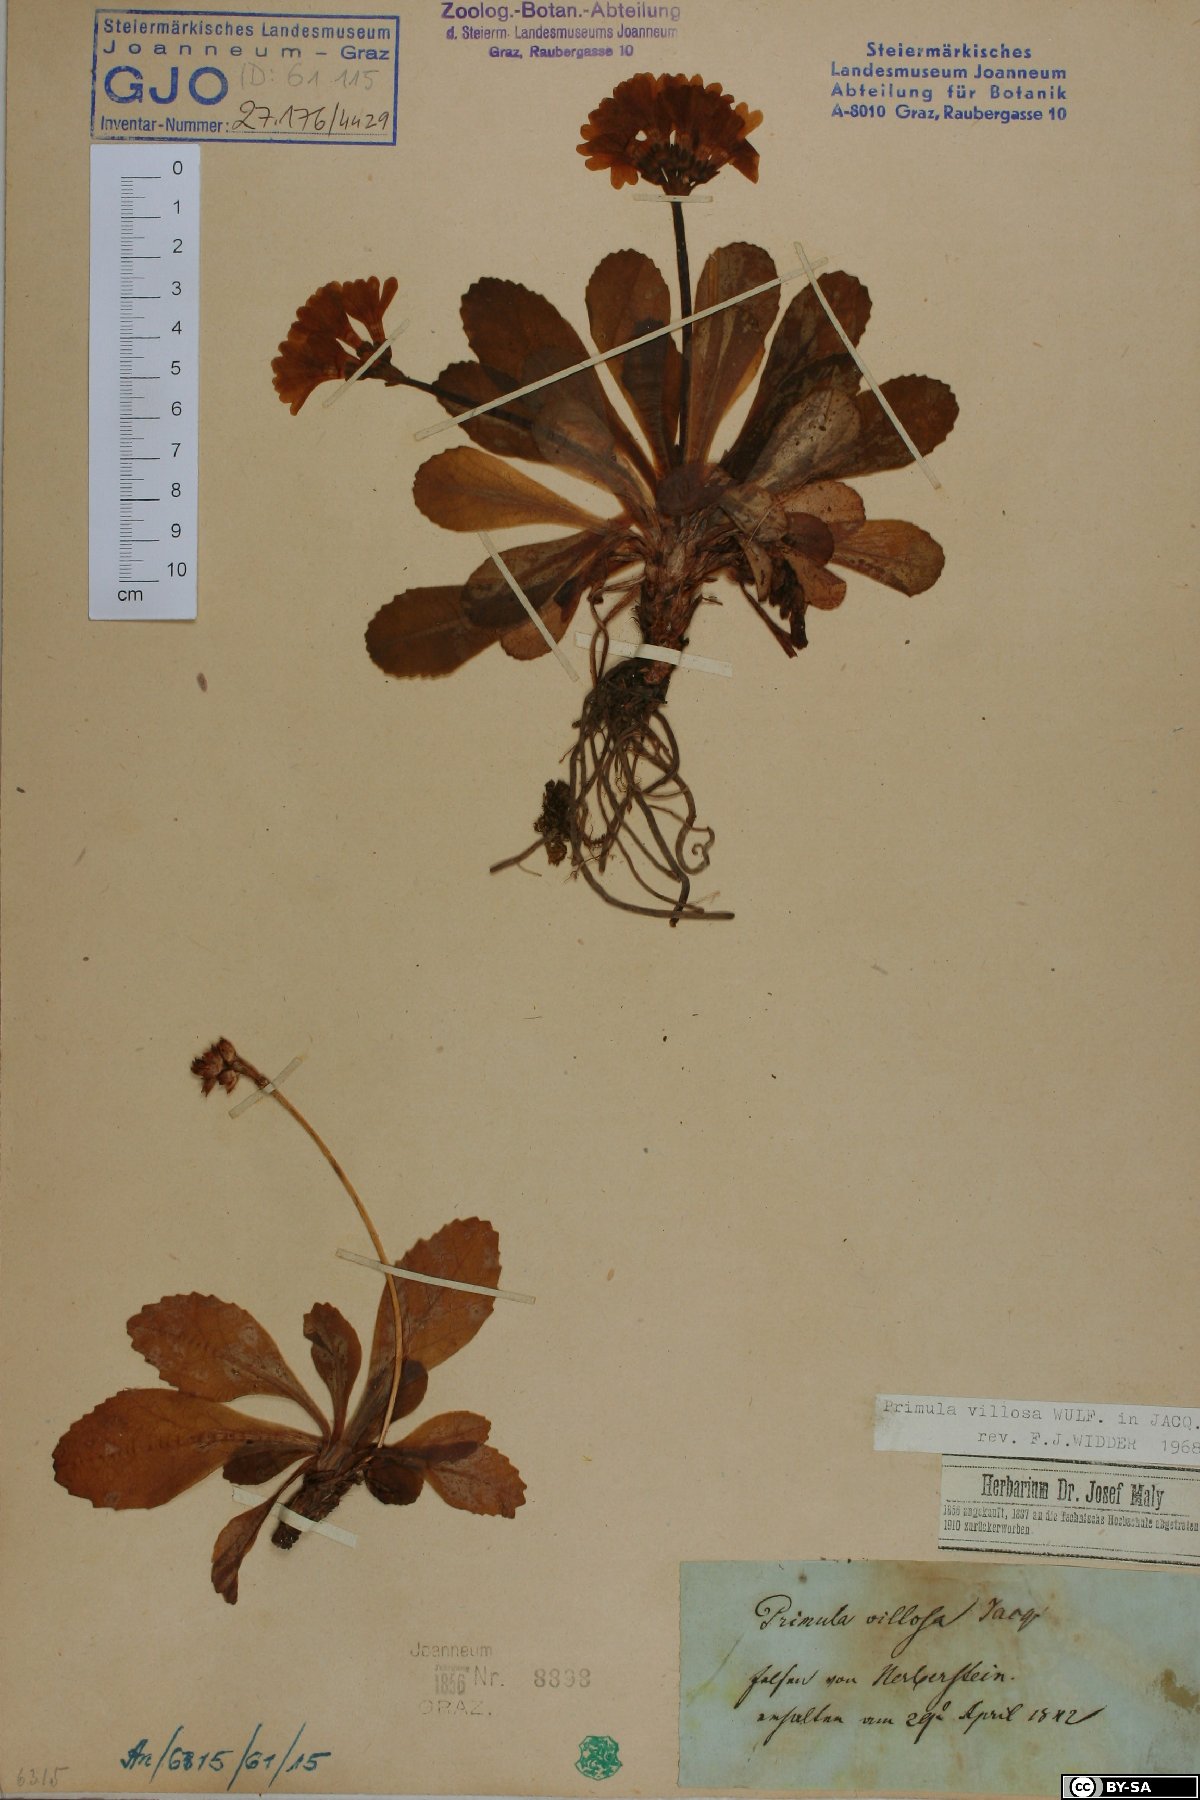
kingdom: Plantae
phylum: Tracheophyta
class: Magnoliopsida
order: Ericales
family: Primulaceae
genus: Primula
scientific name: Primula villosa
